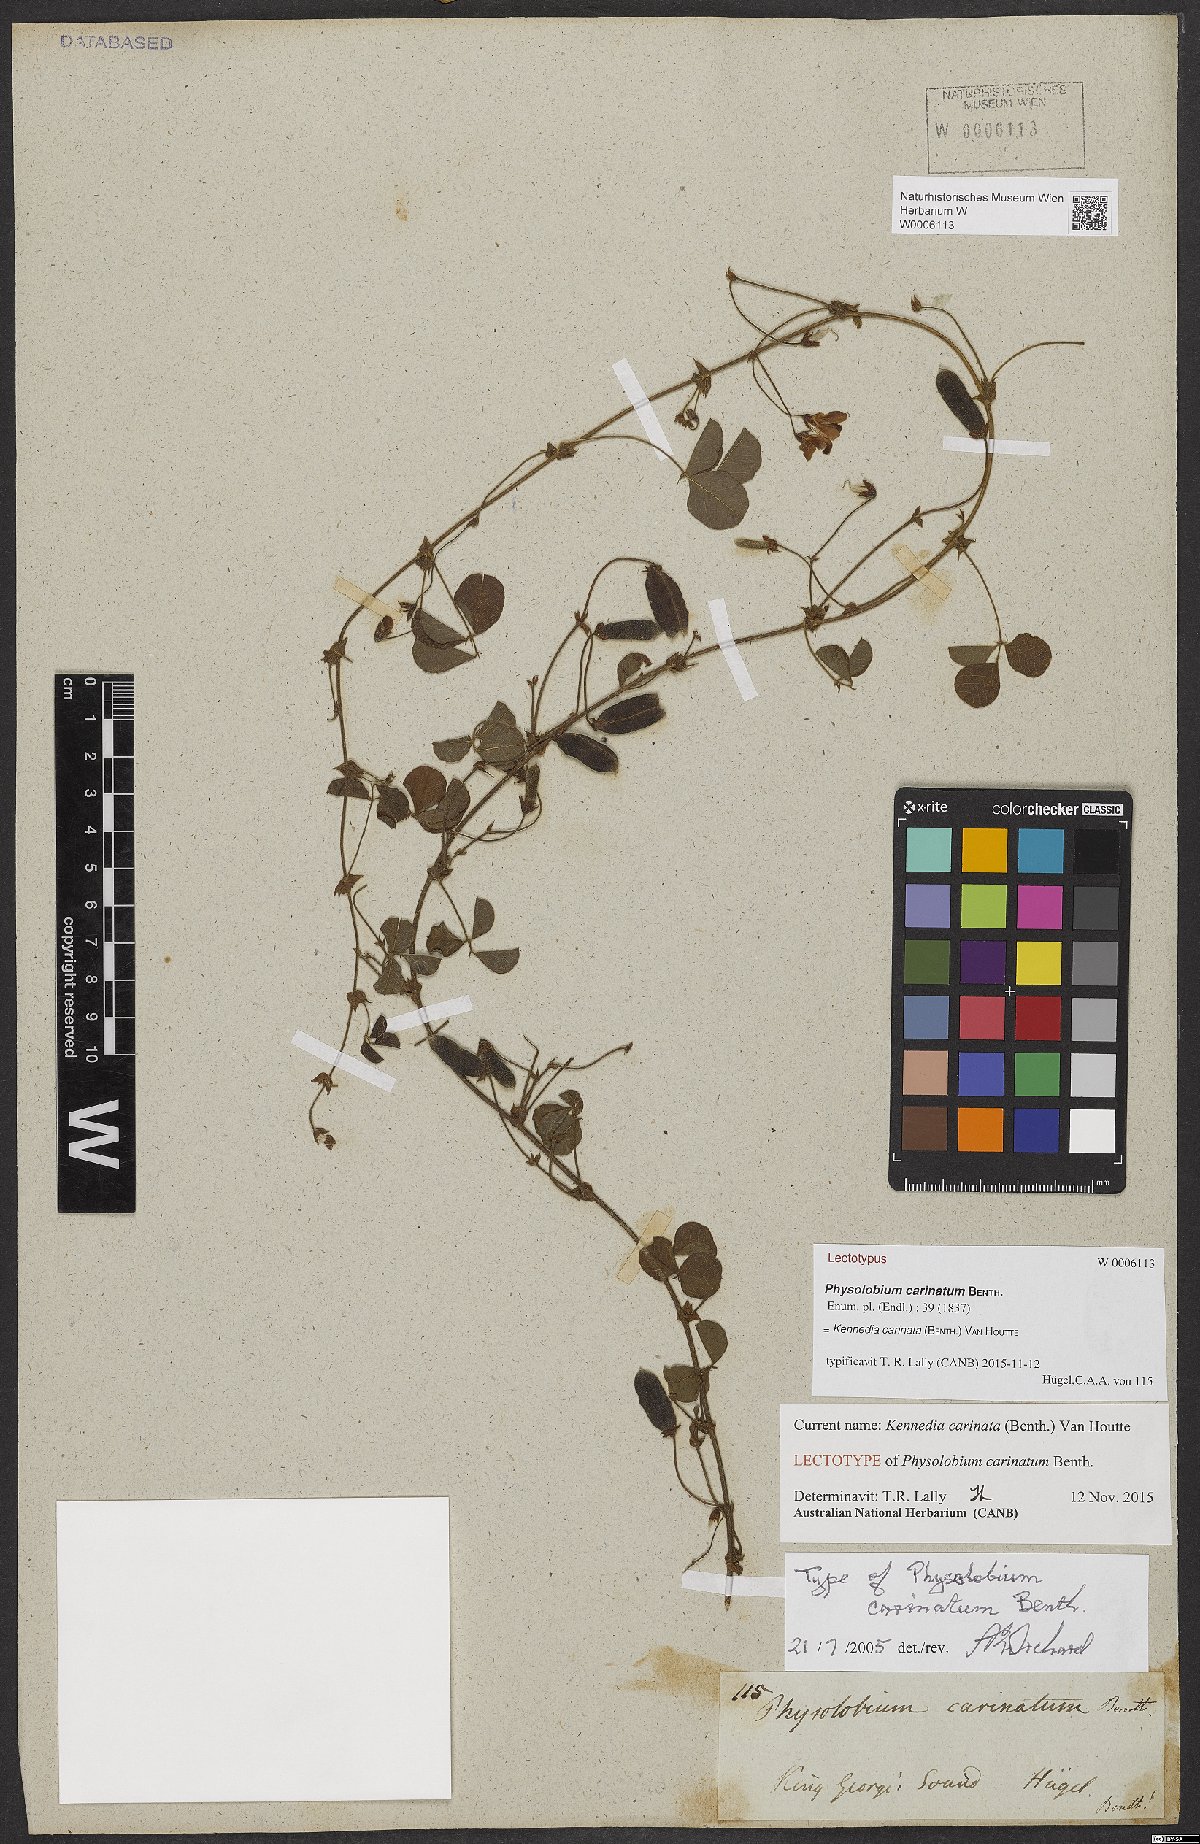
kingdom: Plantae
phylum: Tracheophyta
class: Magnoliopsida
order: Fabales
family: Fabaceae
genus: Kennedia
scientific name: Kennedia carinata
